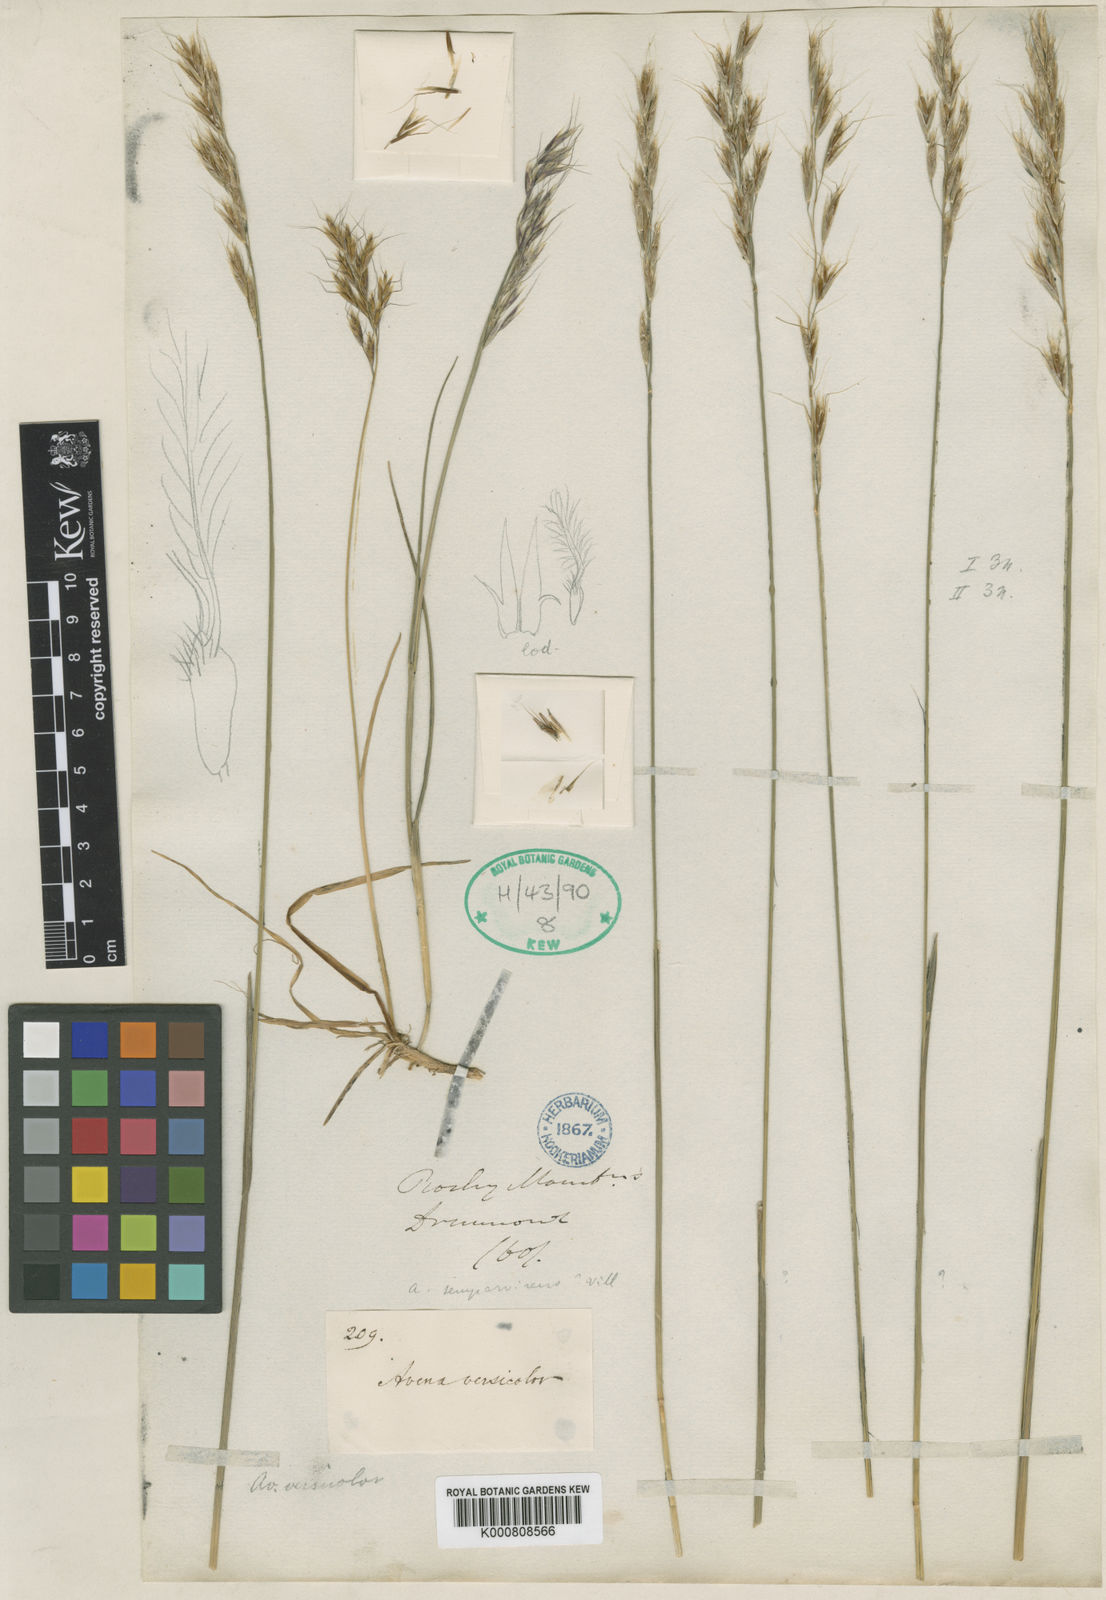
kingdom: Plantae
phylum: Tracheophyta
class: Liliopsida
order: Poales
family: Poaceae
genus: Helictochloa
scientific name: Helictochloa hookeri
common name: Hooker's alpine oatgrass
